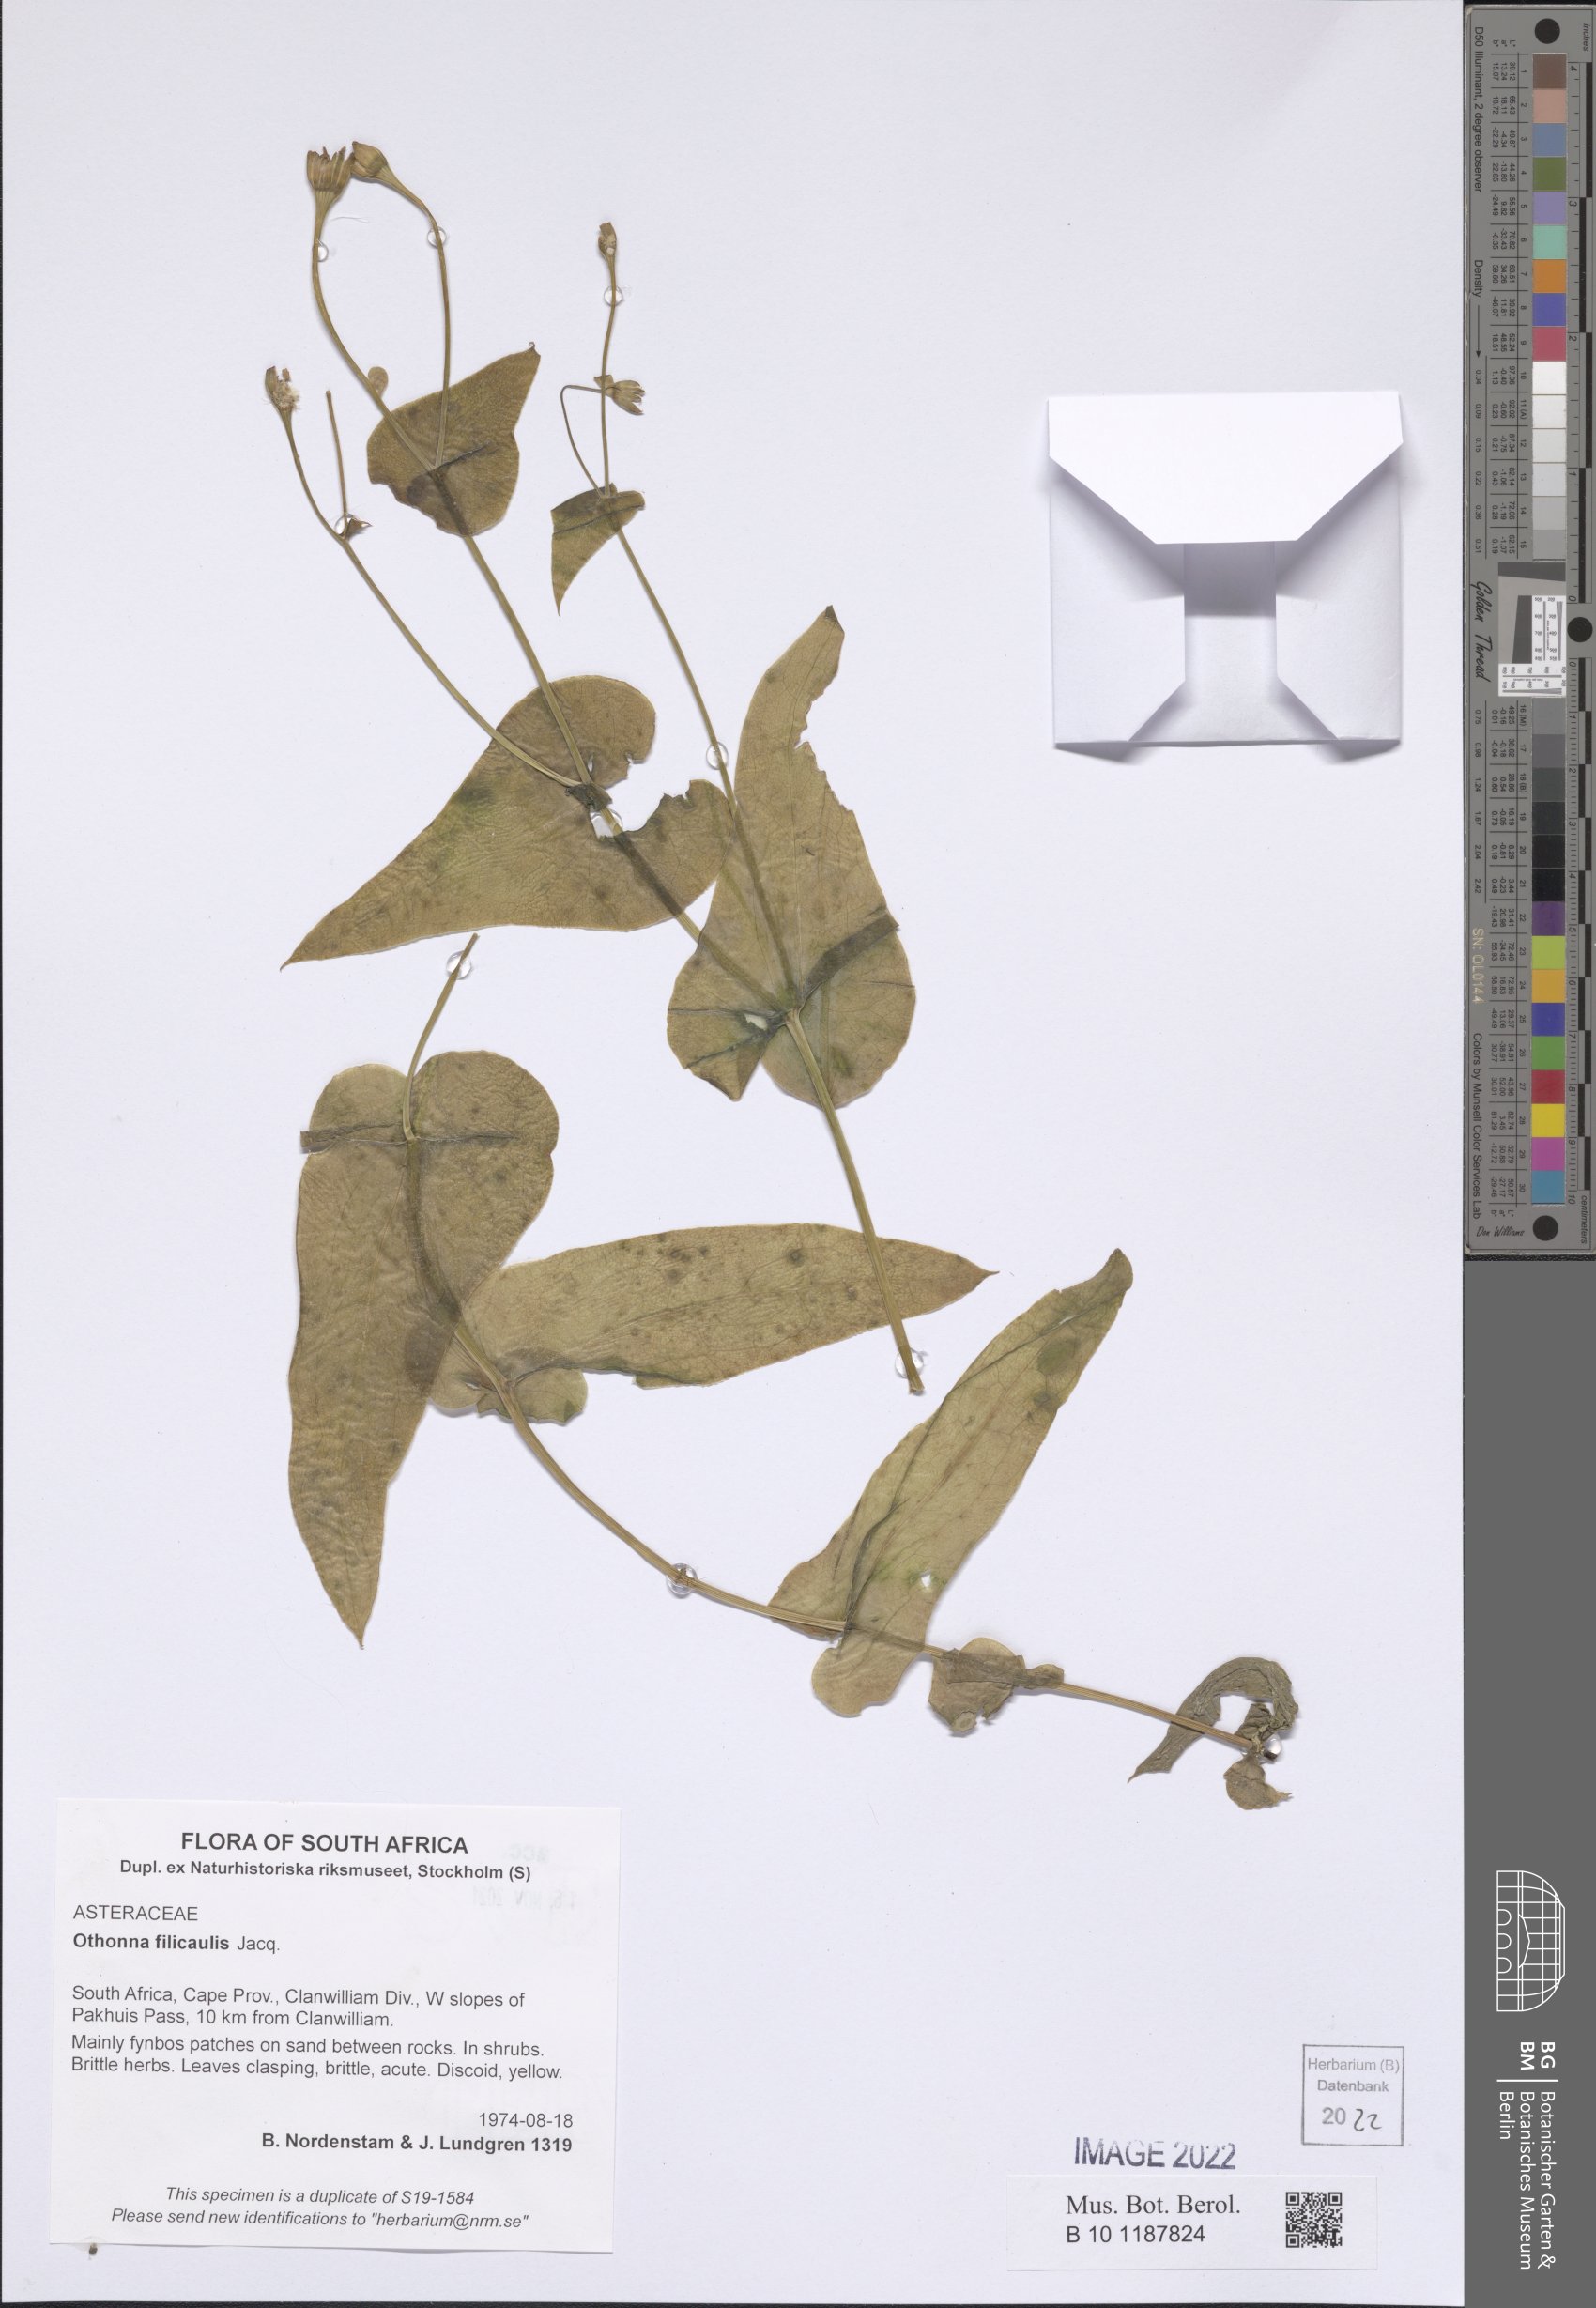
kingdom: Plantae
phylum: Tracheophyta
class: Magnoliopsida
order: Asterales
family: Asteraceae
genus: Othonna
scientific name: Othonna perfoliata
